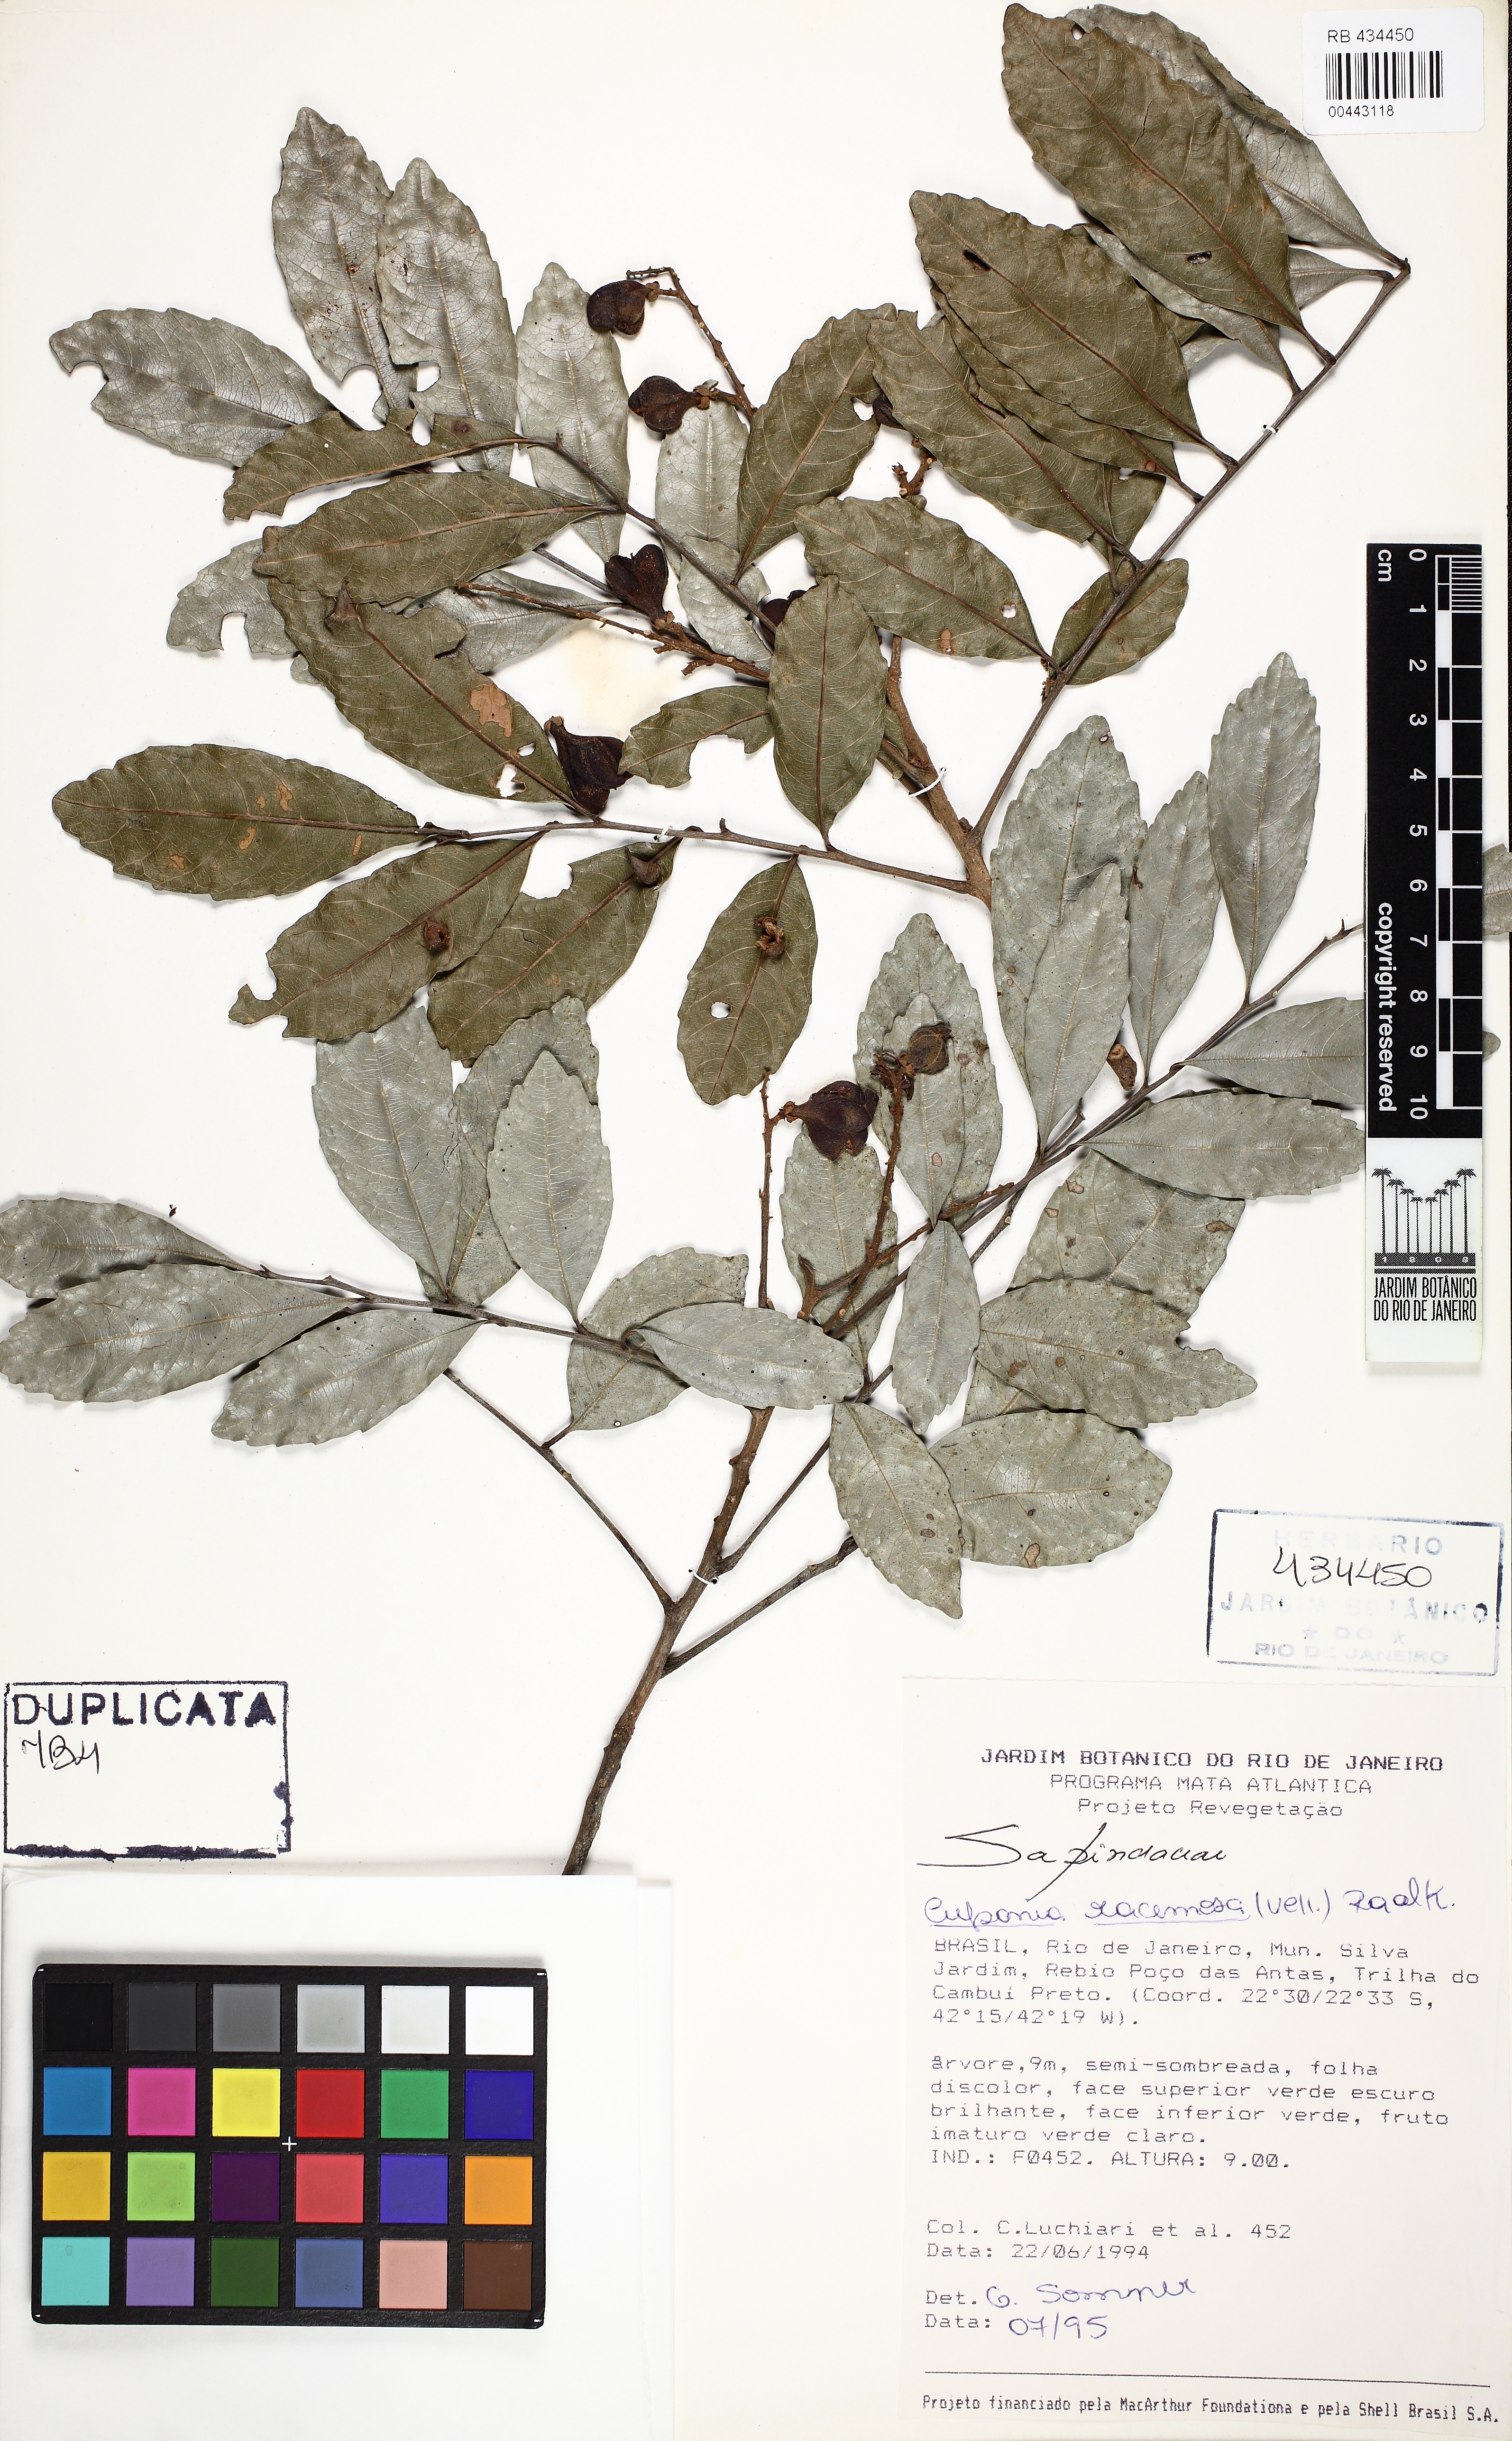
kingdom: Plantae
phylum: Tracheophyta
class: Magnoliopsida
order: Sapindales
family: Sapindaceae
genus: Cupania
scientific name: Cupania racemosa
